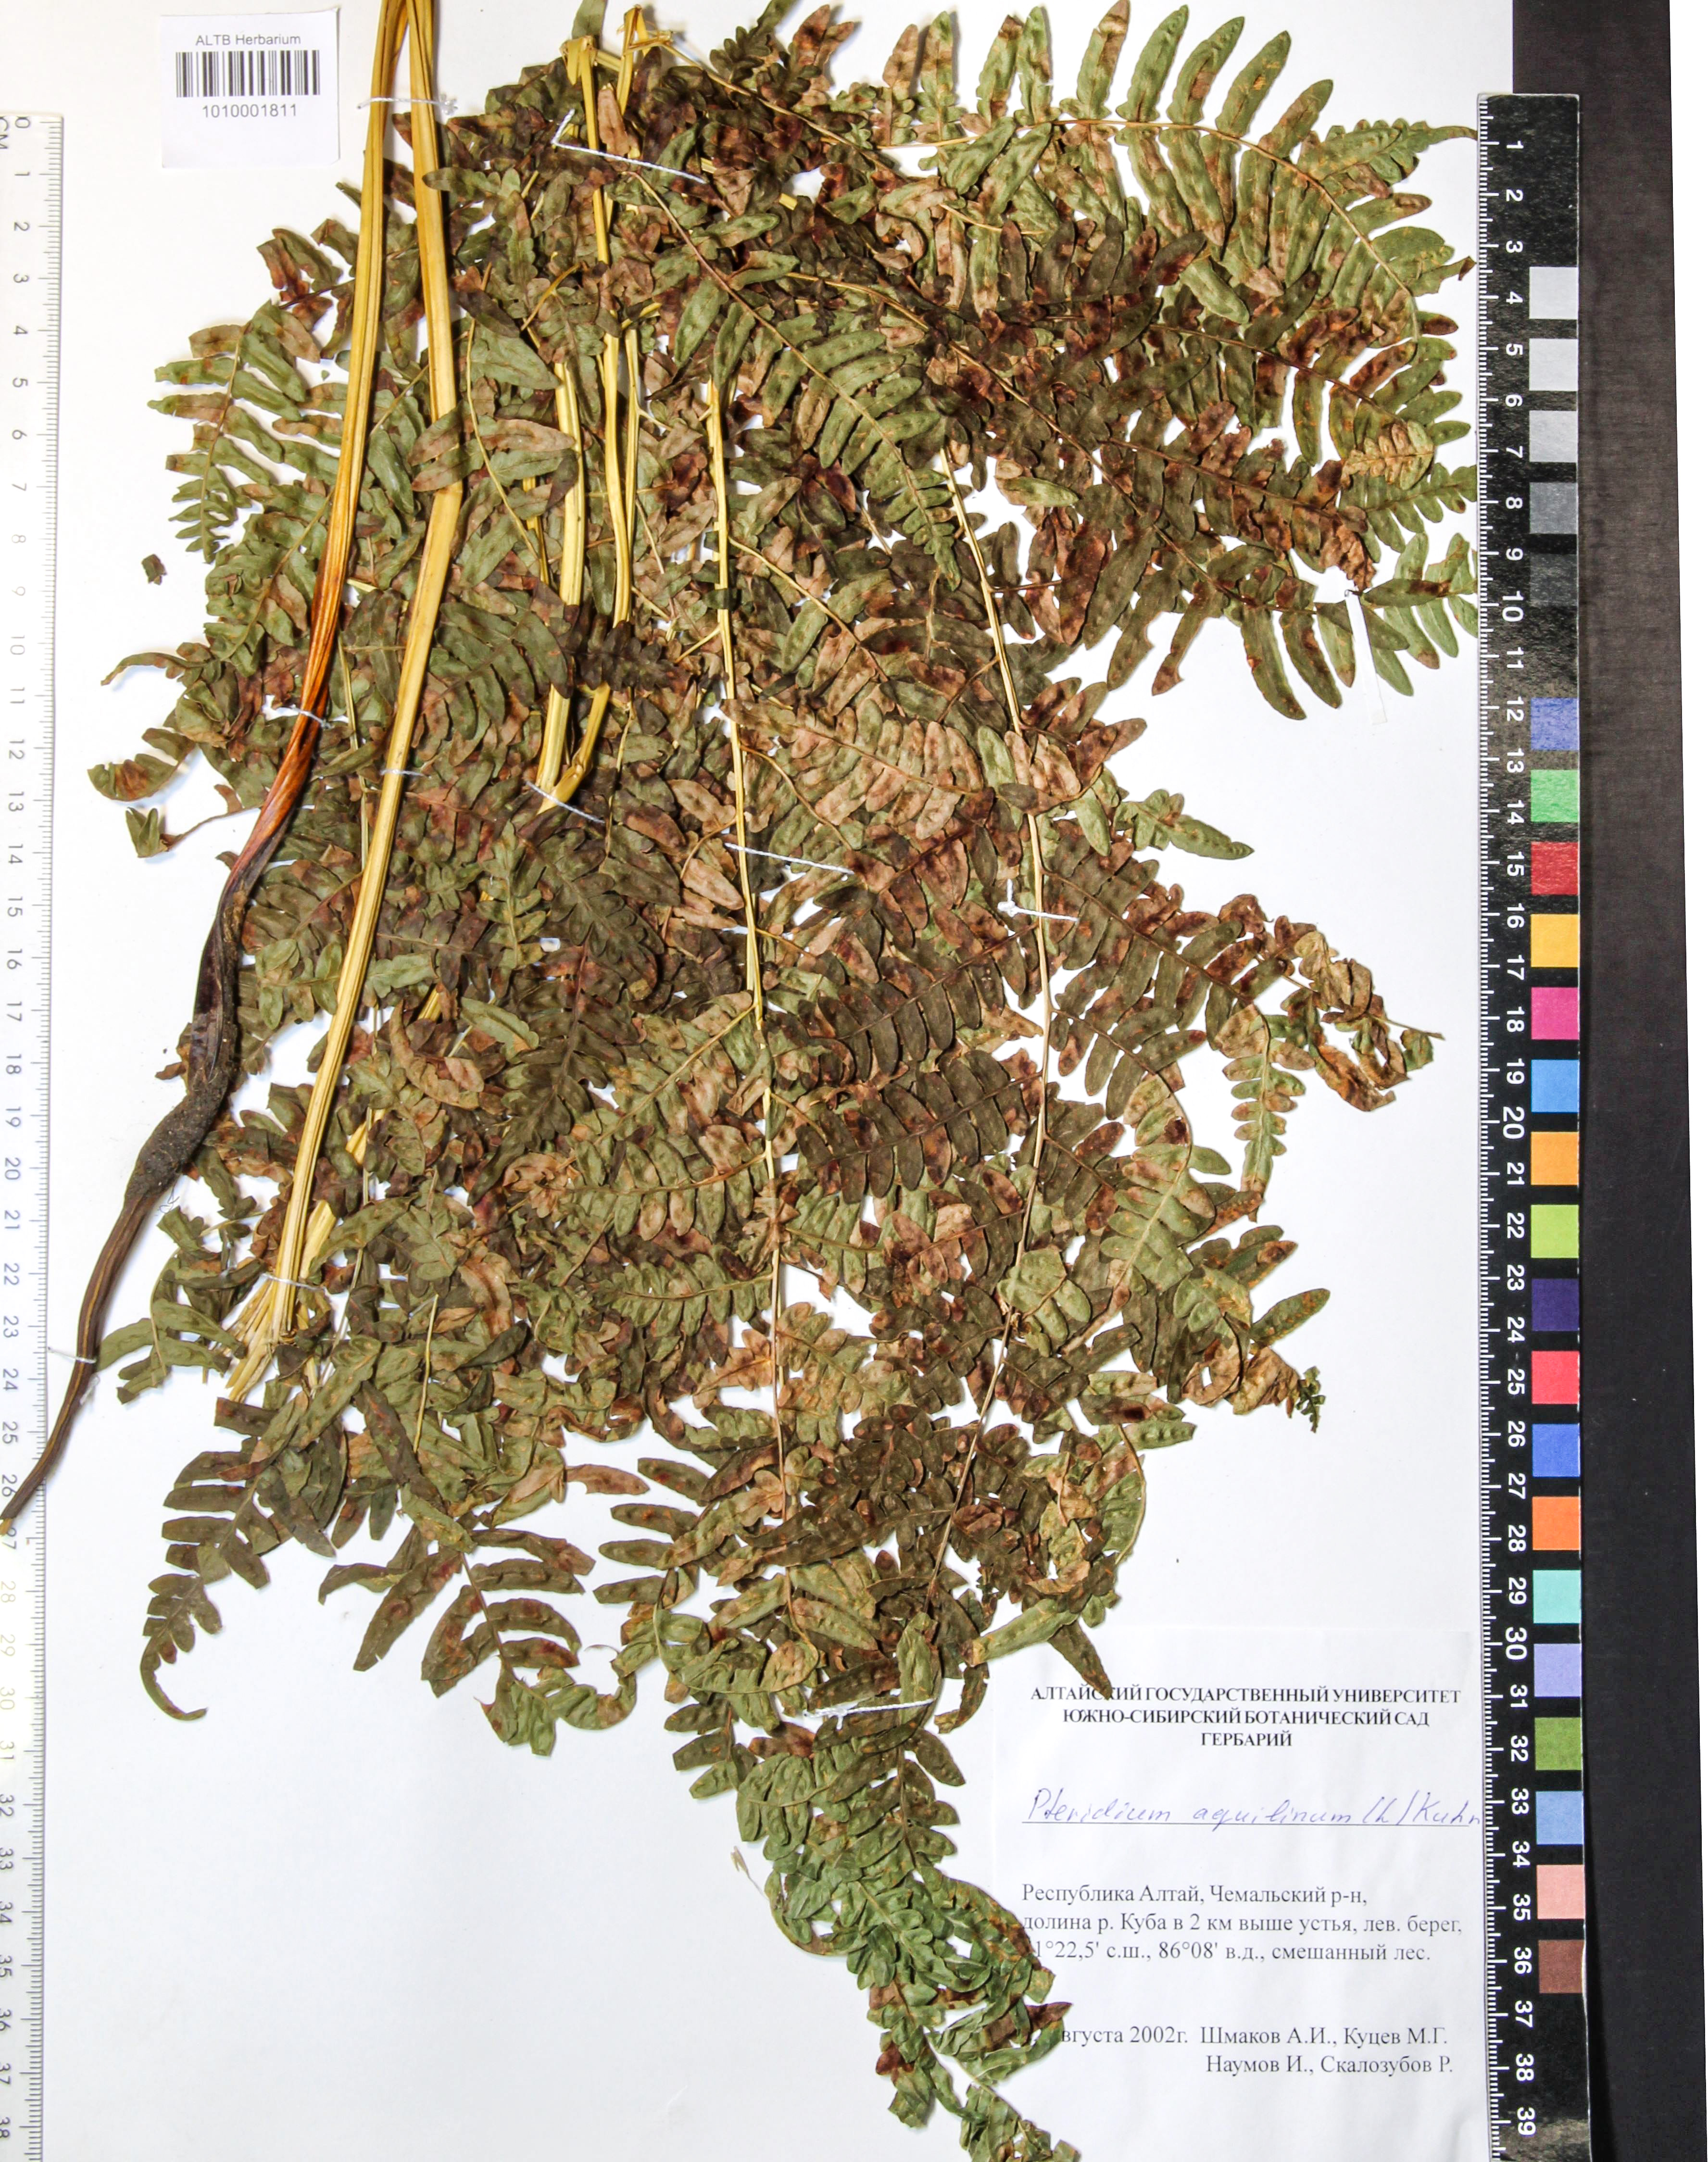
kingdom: Plantae
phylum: Tracheophyta
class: Polypodiopsida
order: Polypodiales
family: Dennstaedtiaceae
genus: Pteridium
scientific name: Pteridium aquilinum
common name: Bracken
